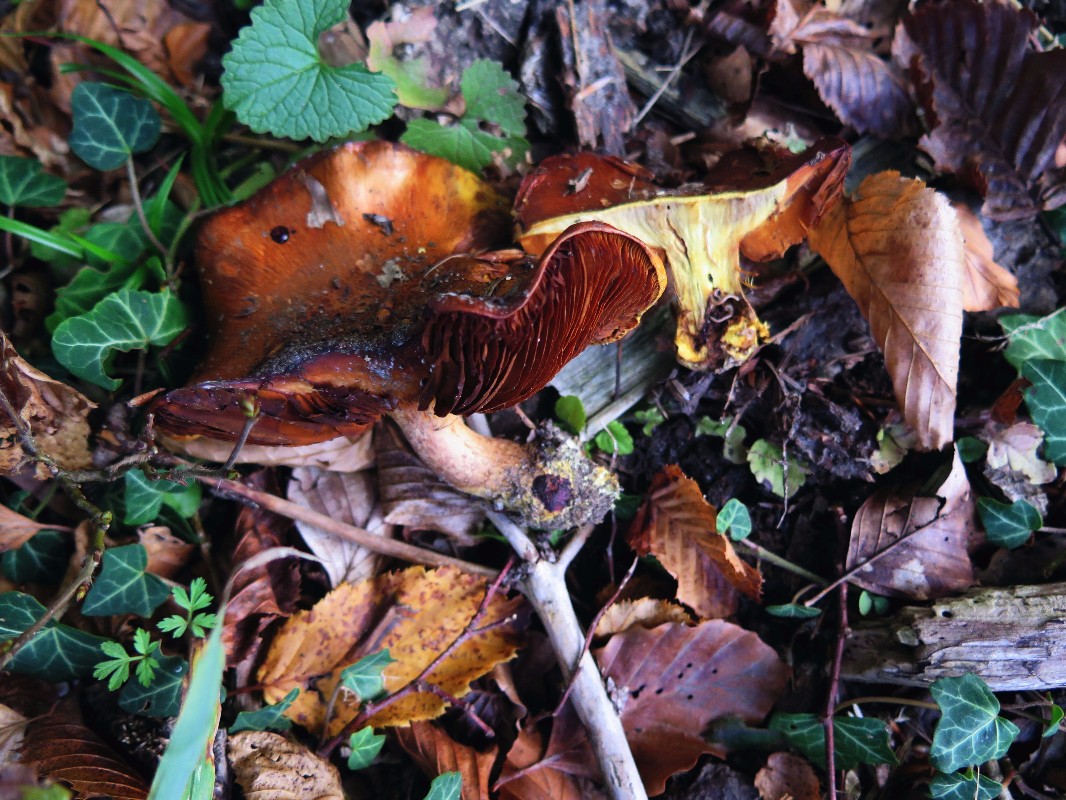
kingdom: Fungi
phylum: Basidiomycota
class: Agaricomycetes
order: Agaricales
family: Cortinariaceae
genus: Calonarius
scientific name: Calonarius olearioides
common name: safran-slørhat
